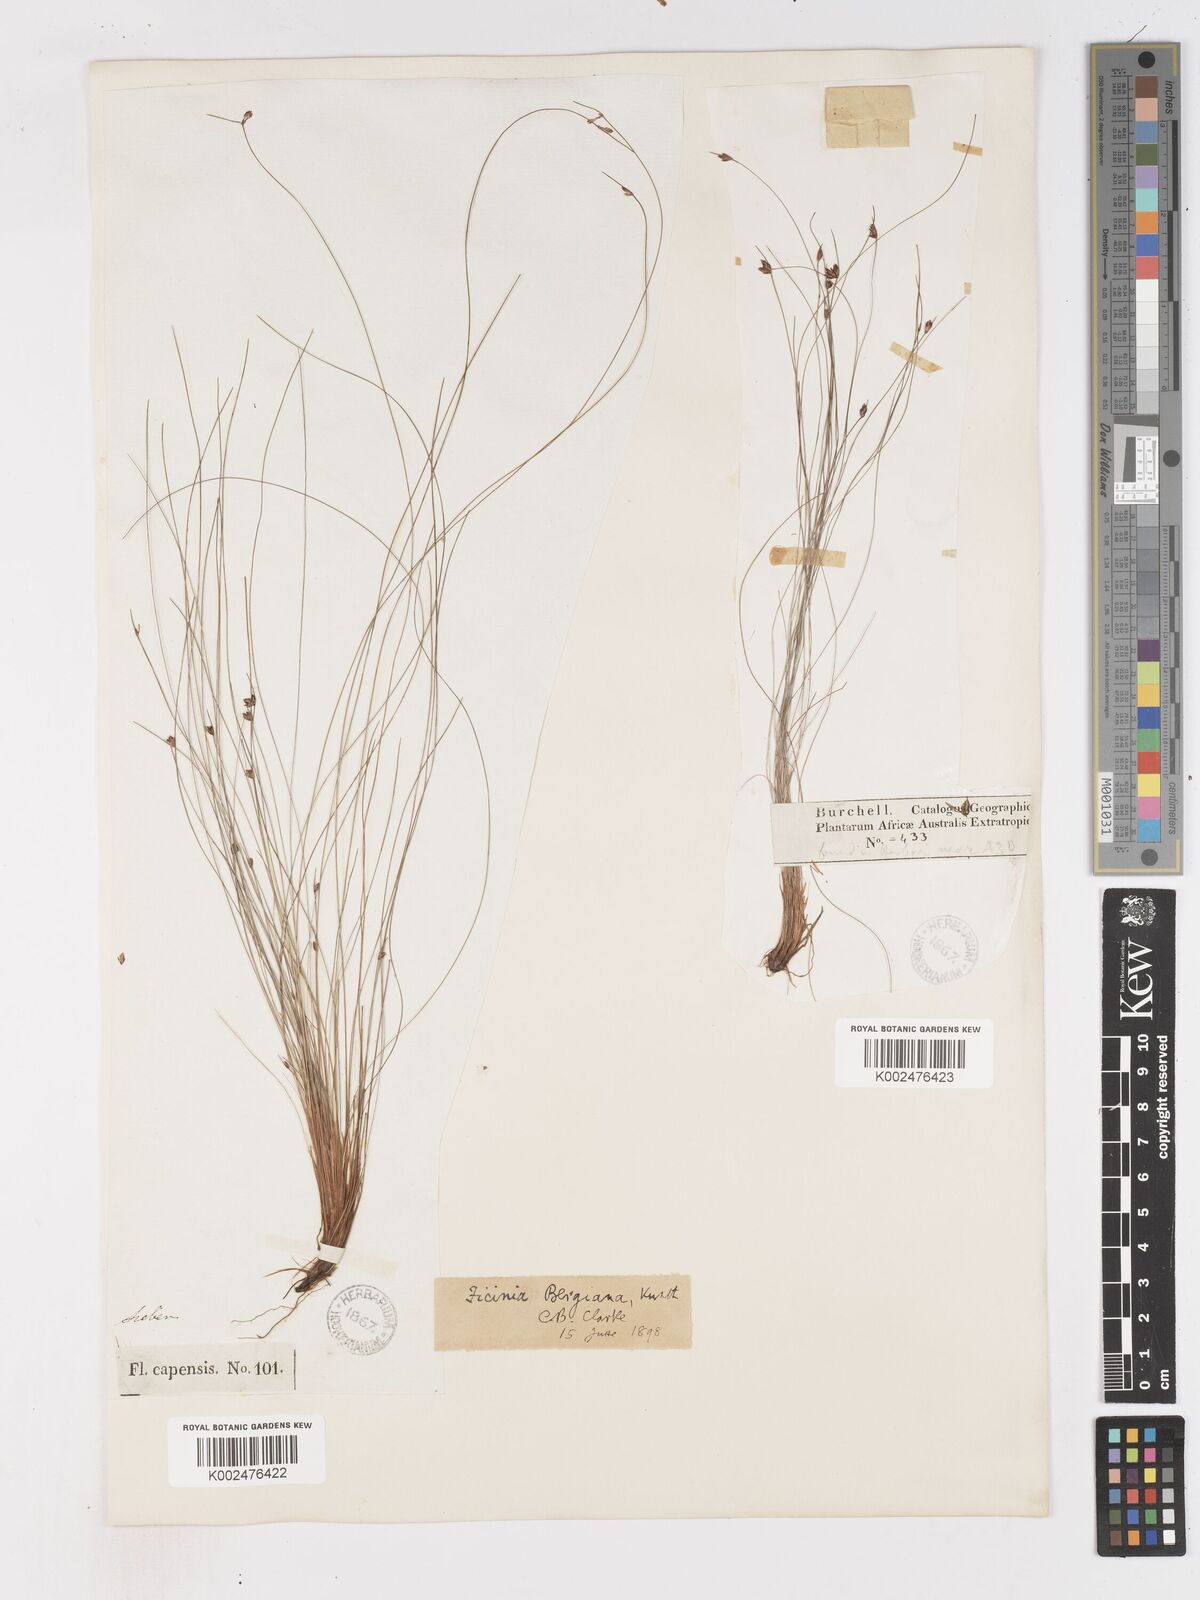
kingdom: Plantae
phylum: Tracheophyta
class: Liliopsida
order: Poales
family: Cyperaceae
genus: Ficinia
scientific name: Ficinia crinita
